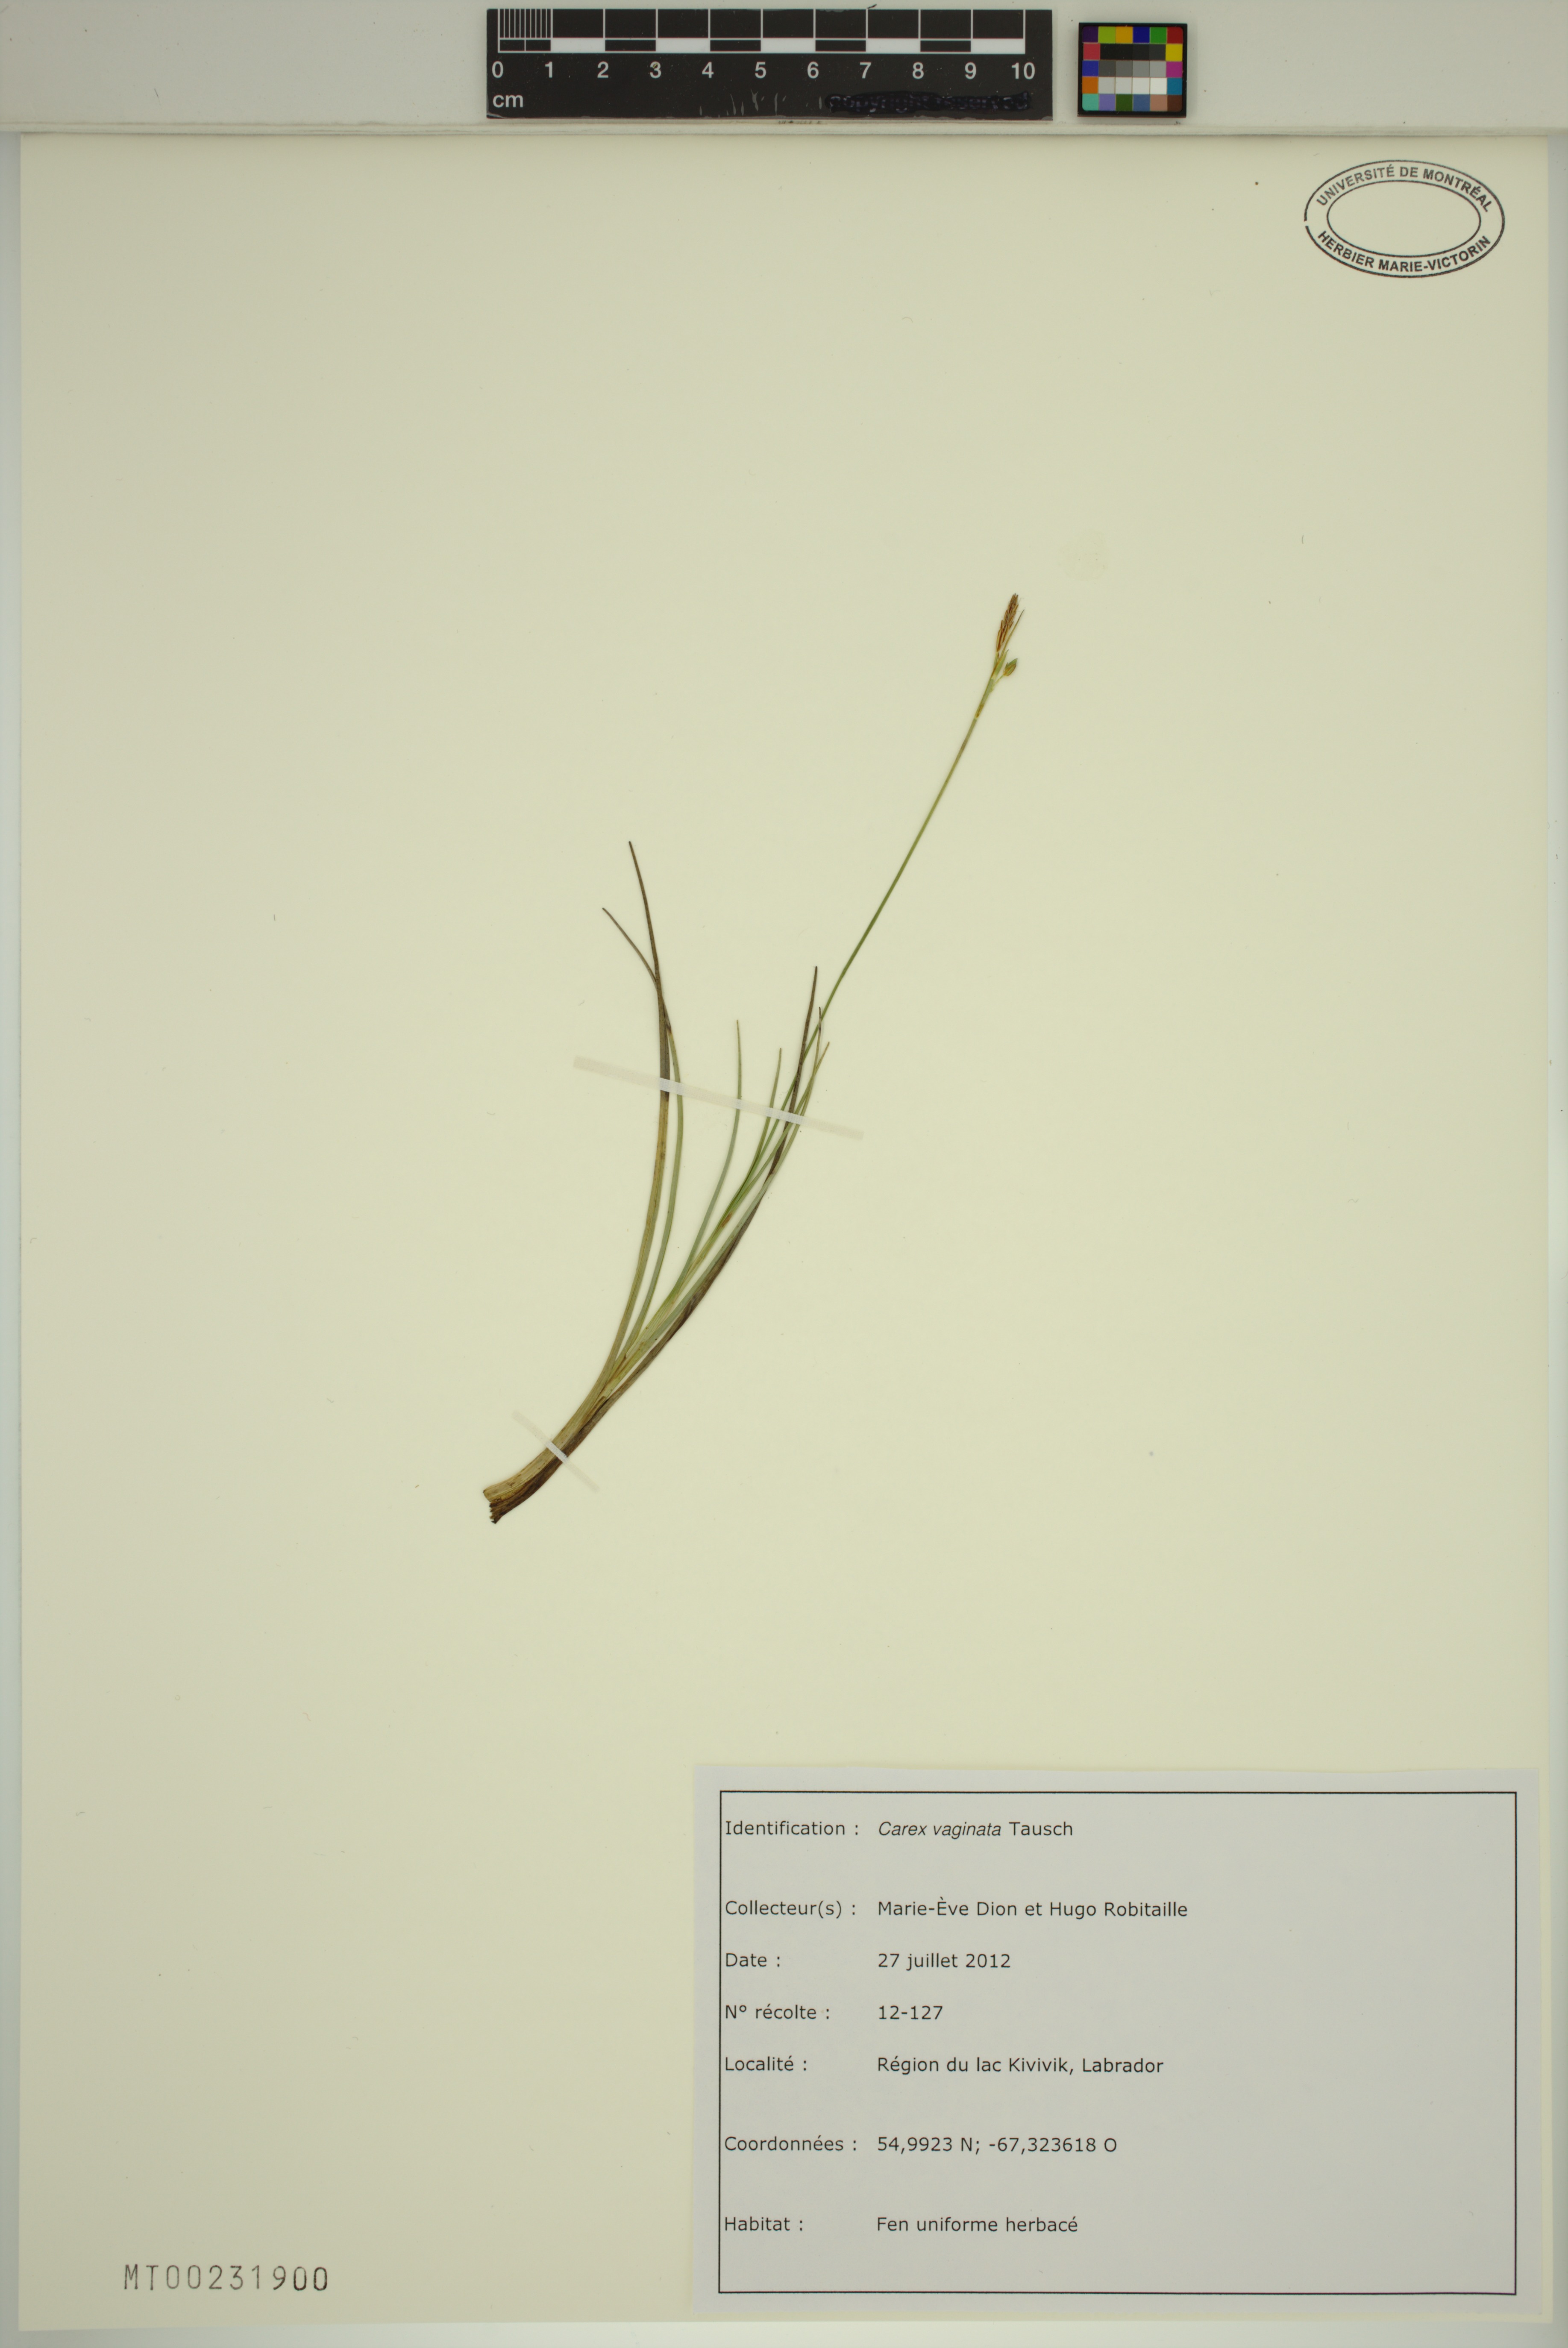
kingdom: Plantae
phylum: Tracheophyta
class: Liliopsida
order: Poales
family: Cyperaceae
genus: Carex
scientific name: Carex vaginata
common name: Sheathed sedge
